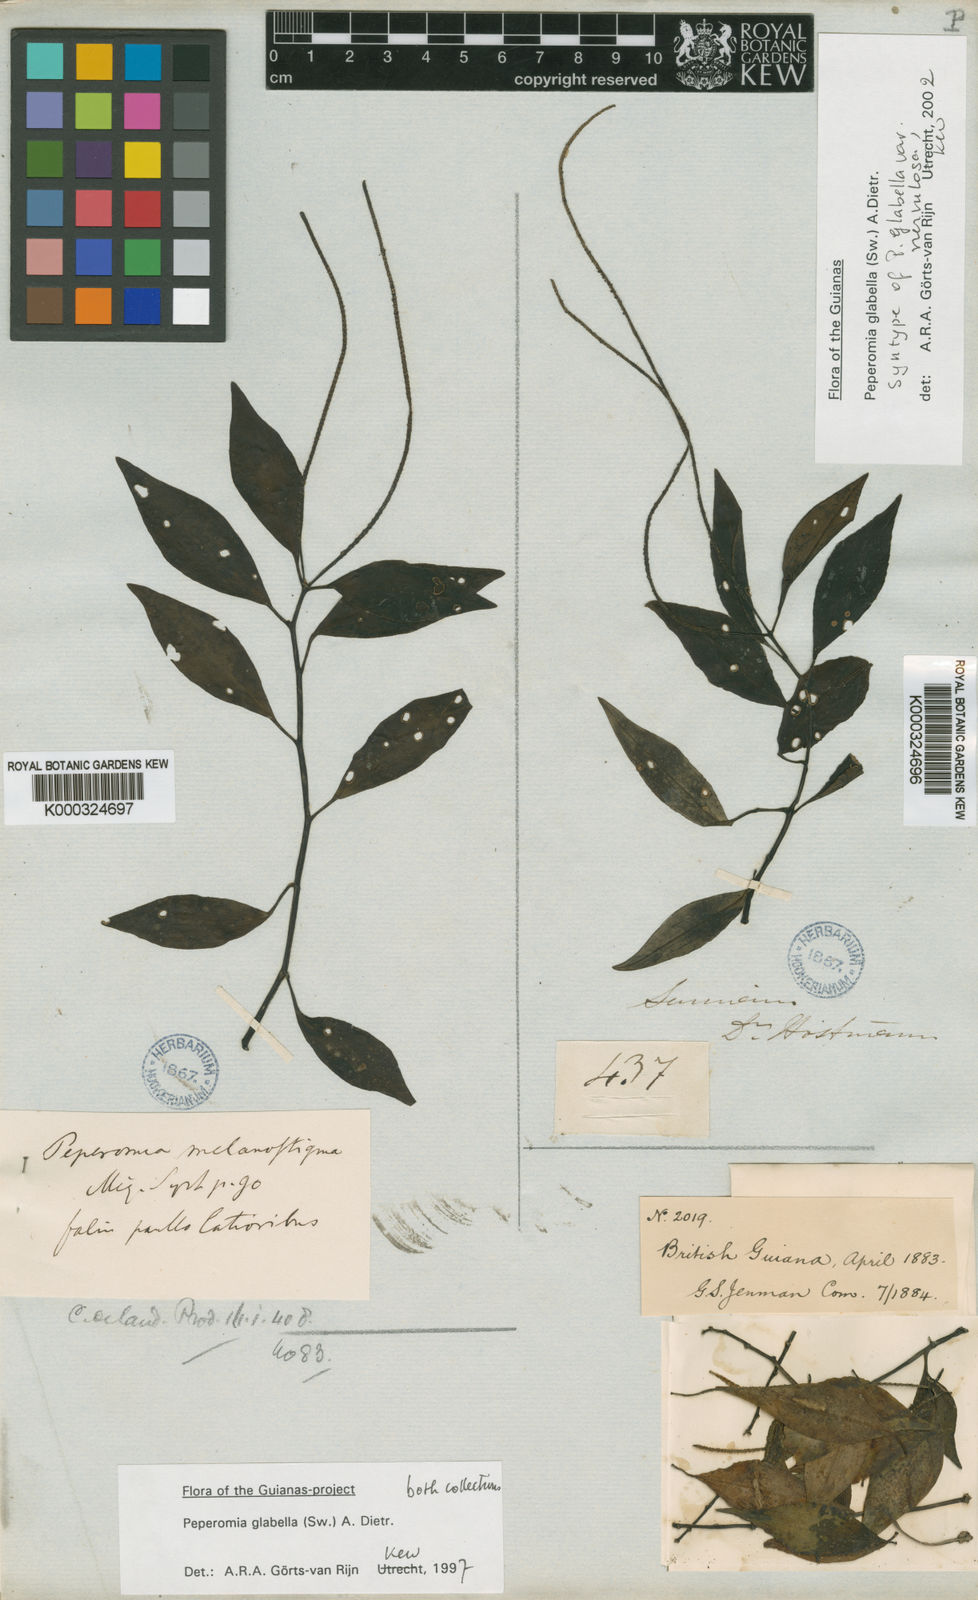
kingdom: Plantae
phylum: Tracheophyta
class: Magnoliopsida
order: Piperales
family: Piperaceae
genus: Peperomia
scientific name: Peperomia glabella
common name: Cypress peperomia
